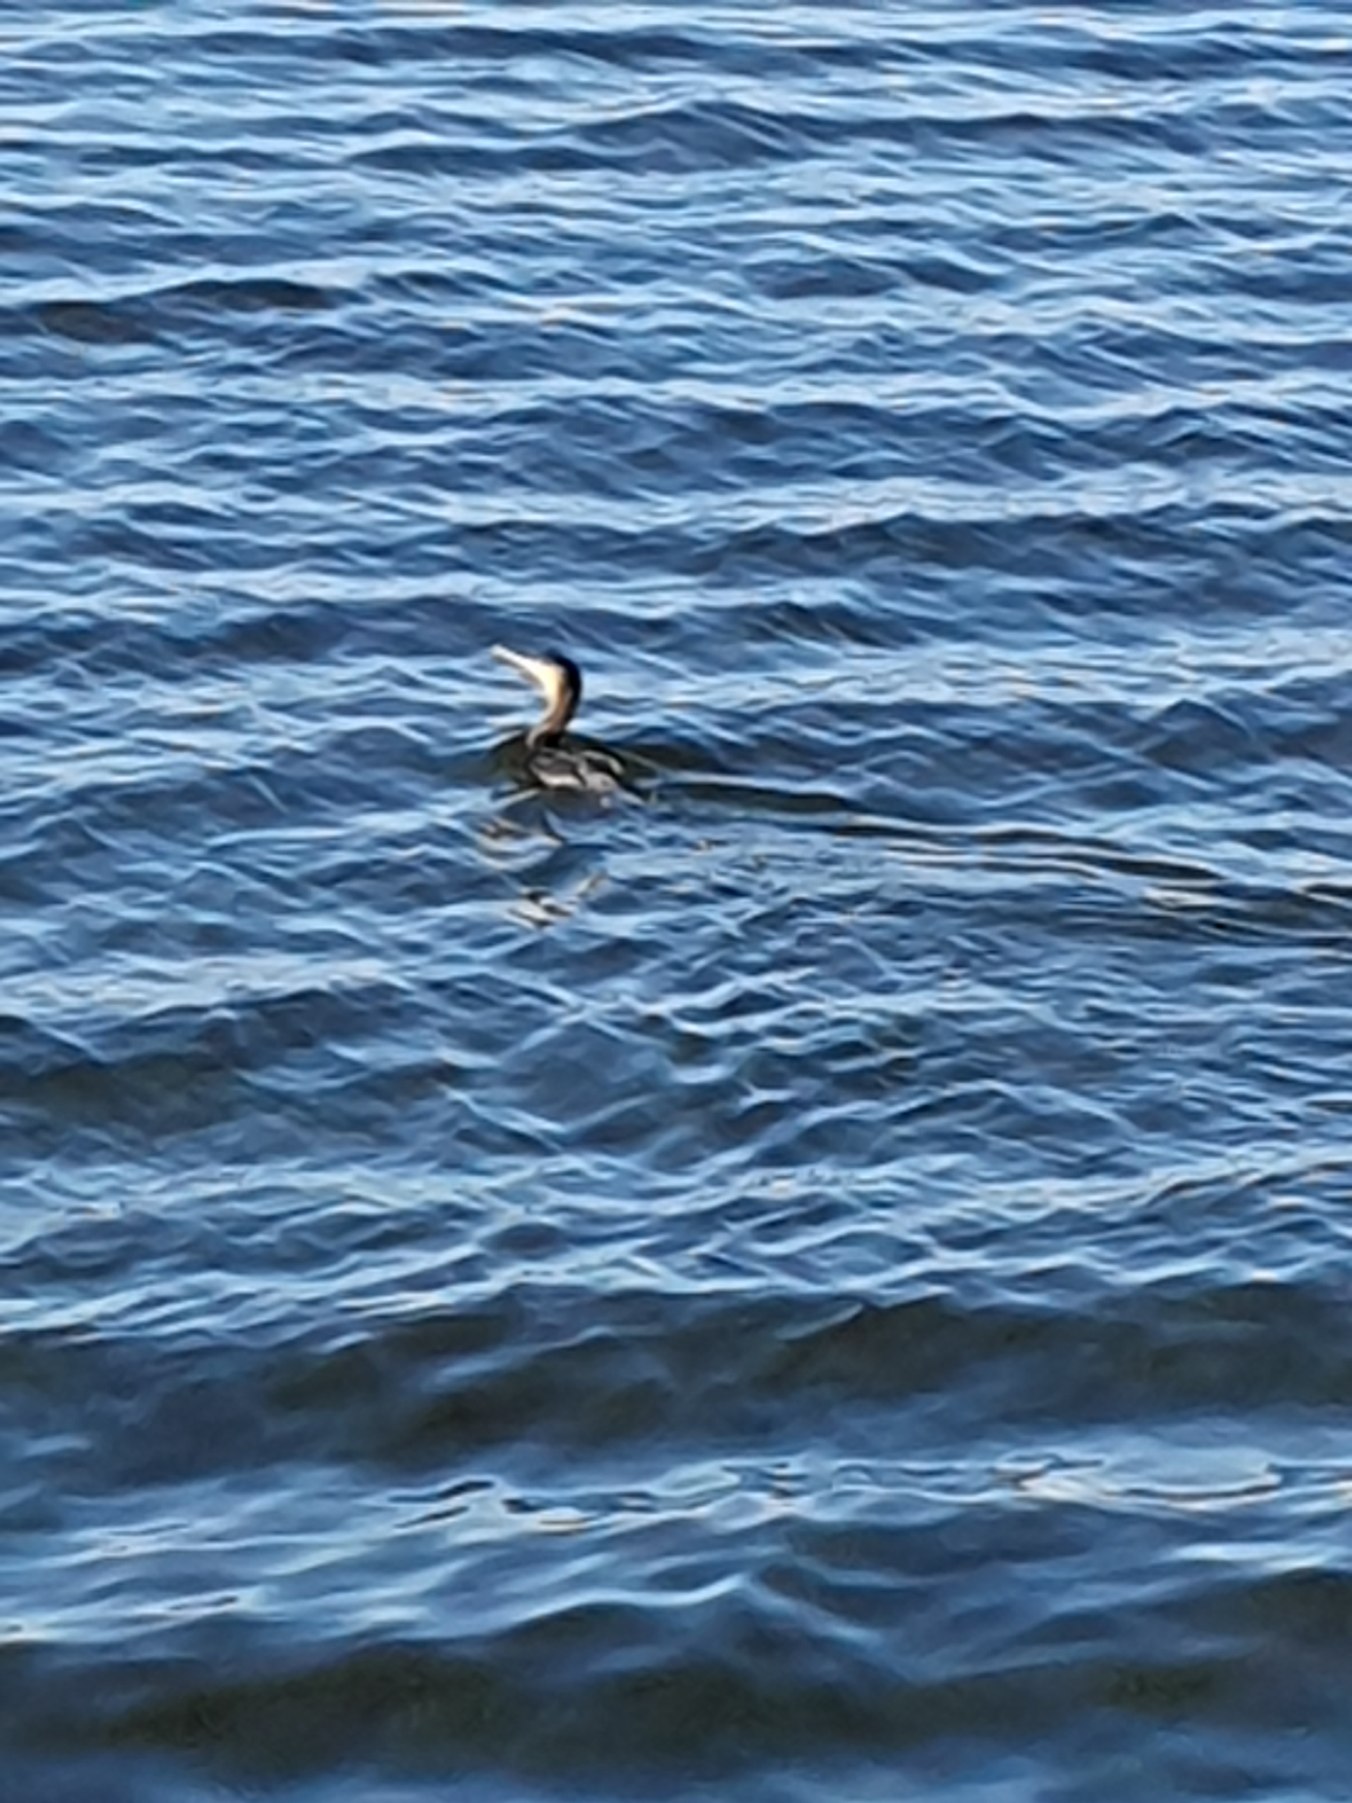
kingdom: Animalia
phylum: Chordata
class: Aves
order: Suliformes
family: Phalacrocoracidae
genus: Phalacrocorax
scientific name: Phalacrocorax carbo
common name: Skarv
